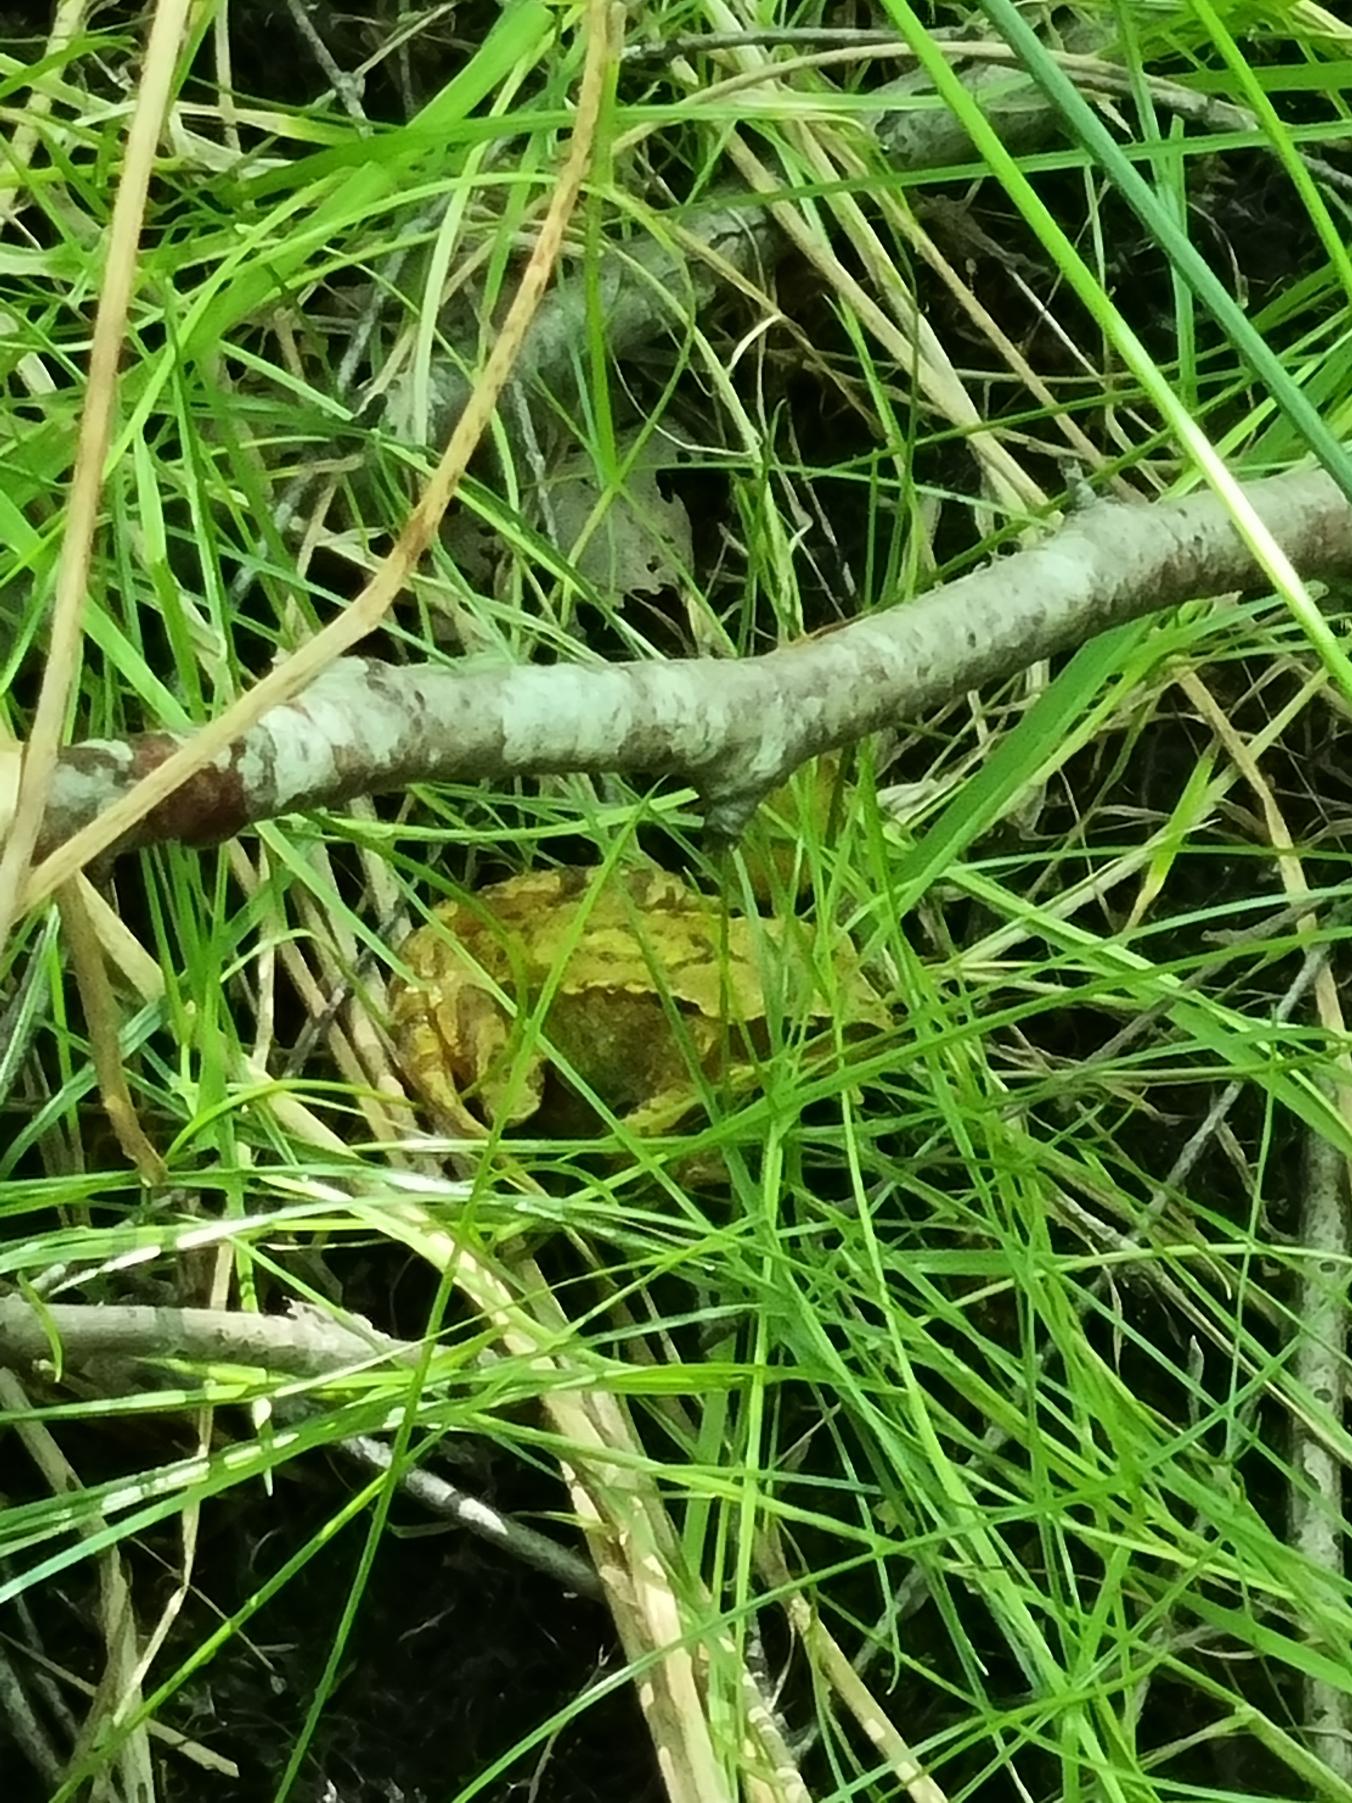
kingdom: Animalia
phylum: Chordata
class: Amphibia
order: Anura
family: Ranidae
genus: Rana
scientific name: Rana temporaria
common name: Butsnudet frø
